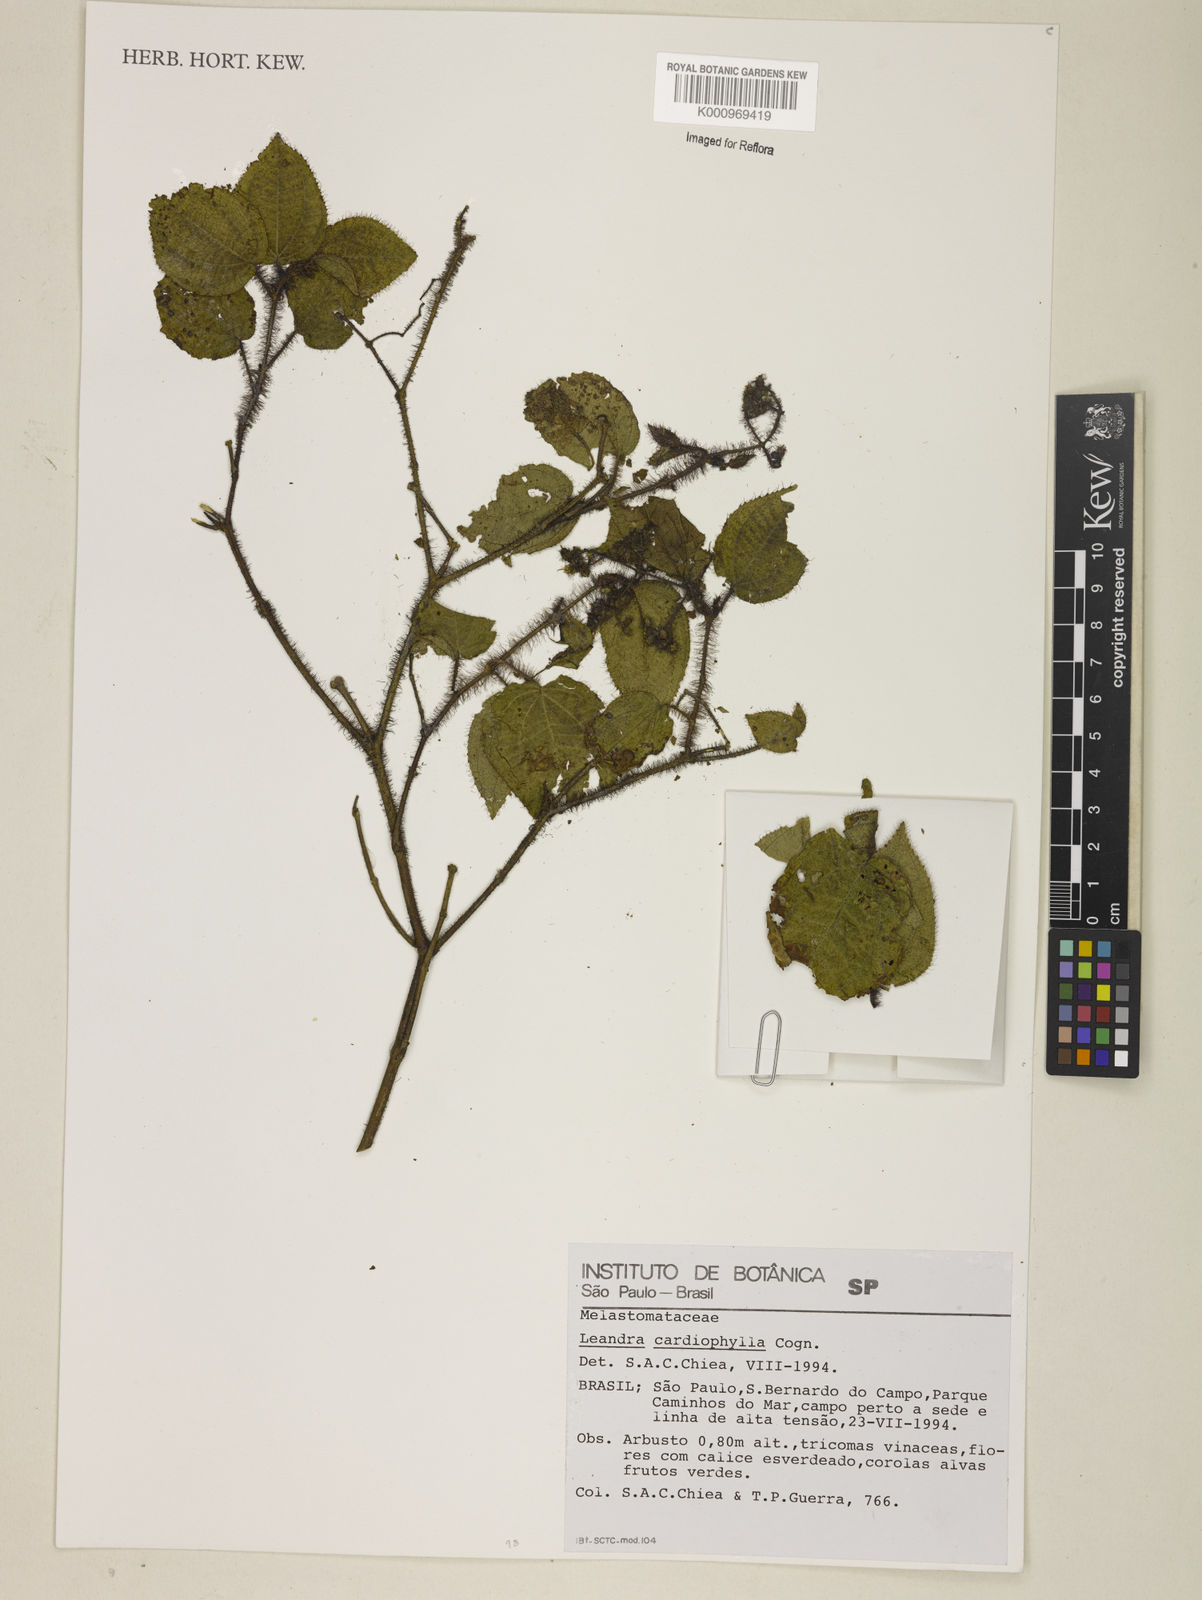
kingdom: Plantae
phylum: Tracheophyta
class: Magnoliopsida
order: Myrtales
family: Melastomataceae
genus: Miconia
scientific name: Miconia leacordifolia
